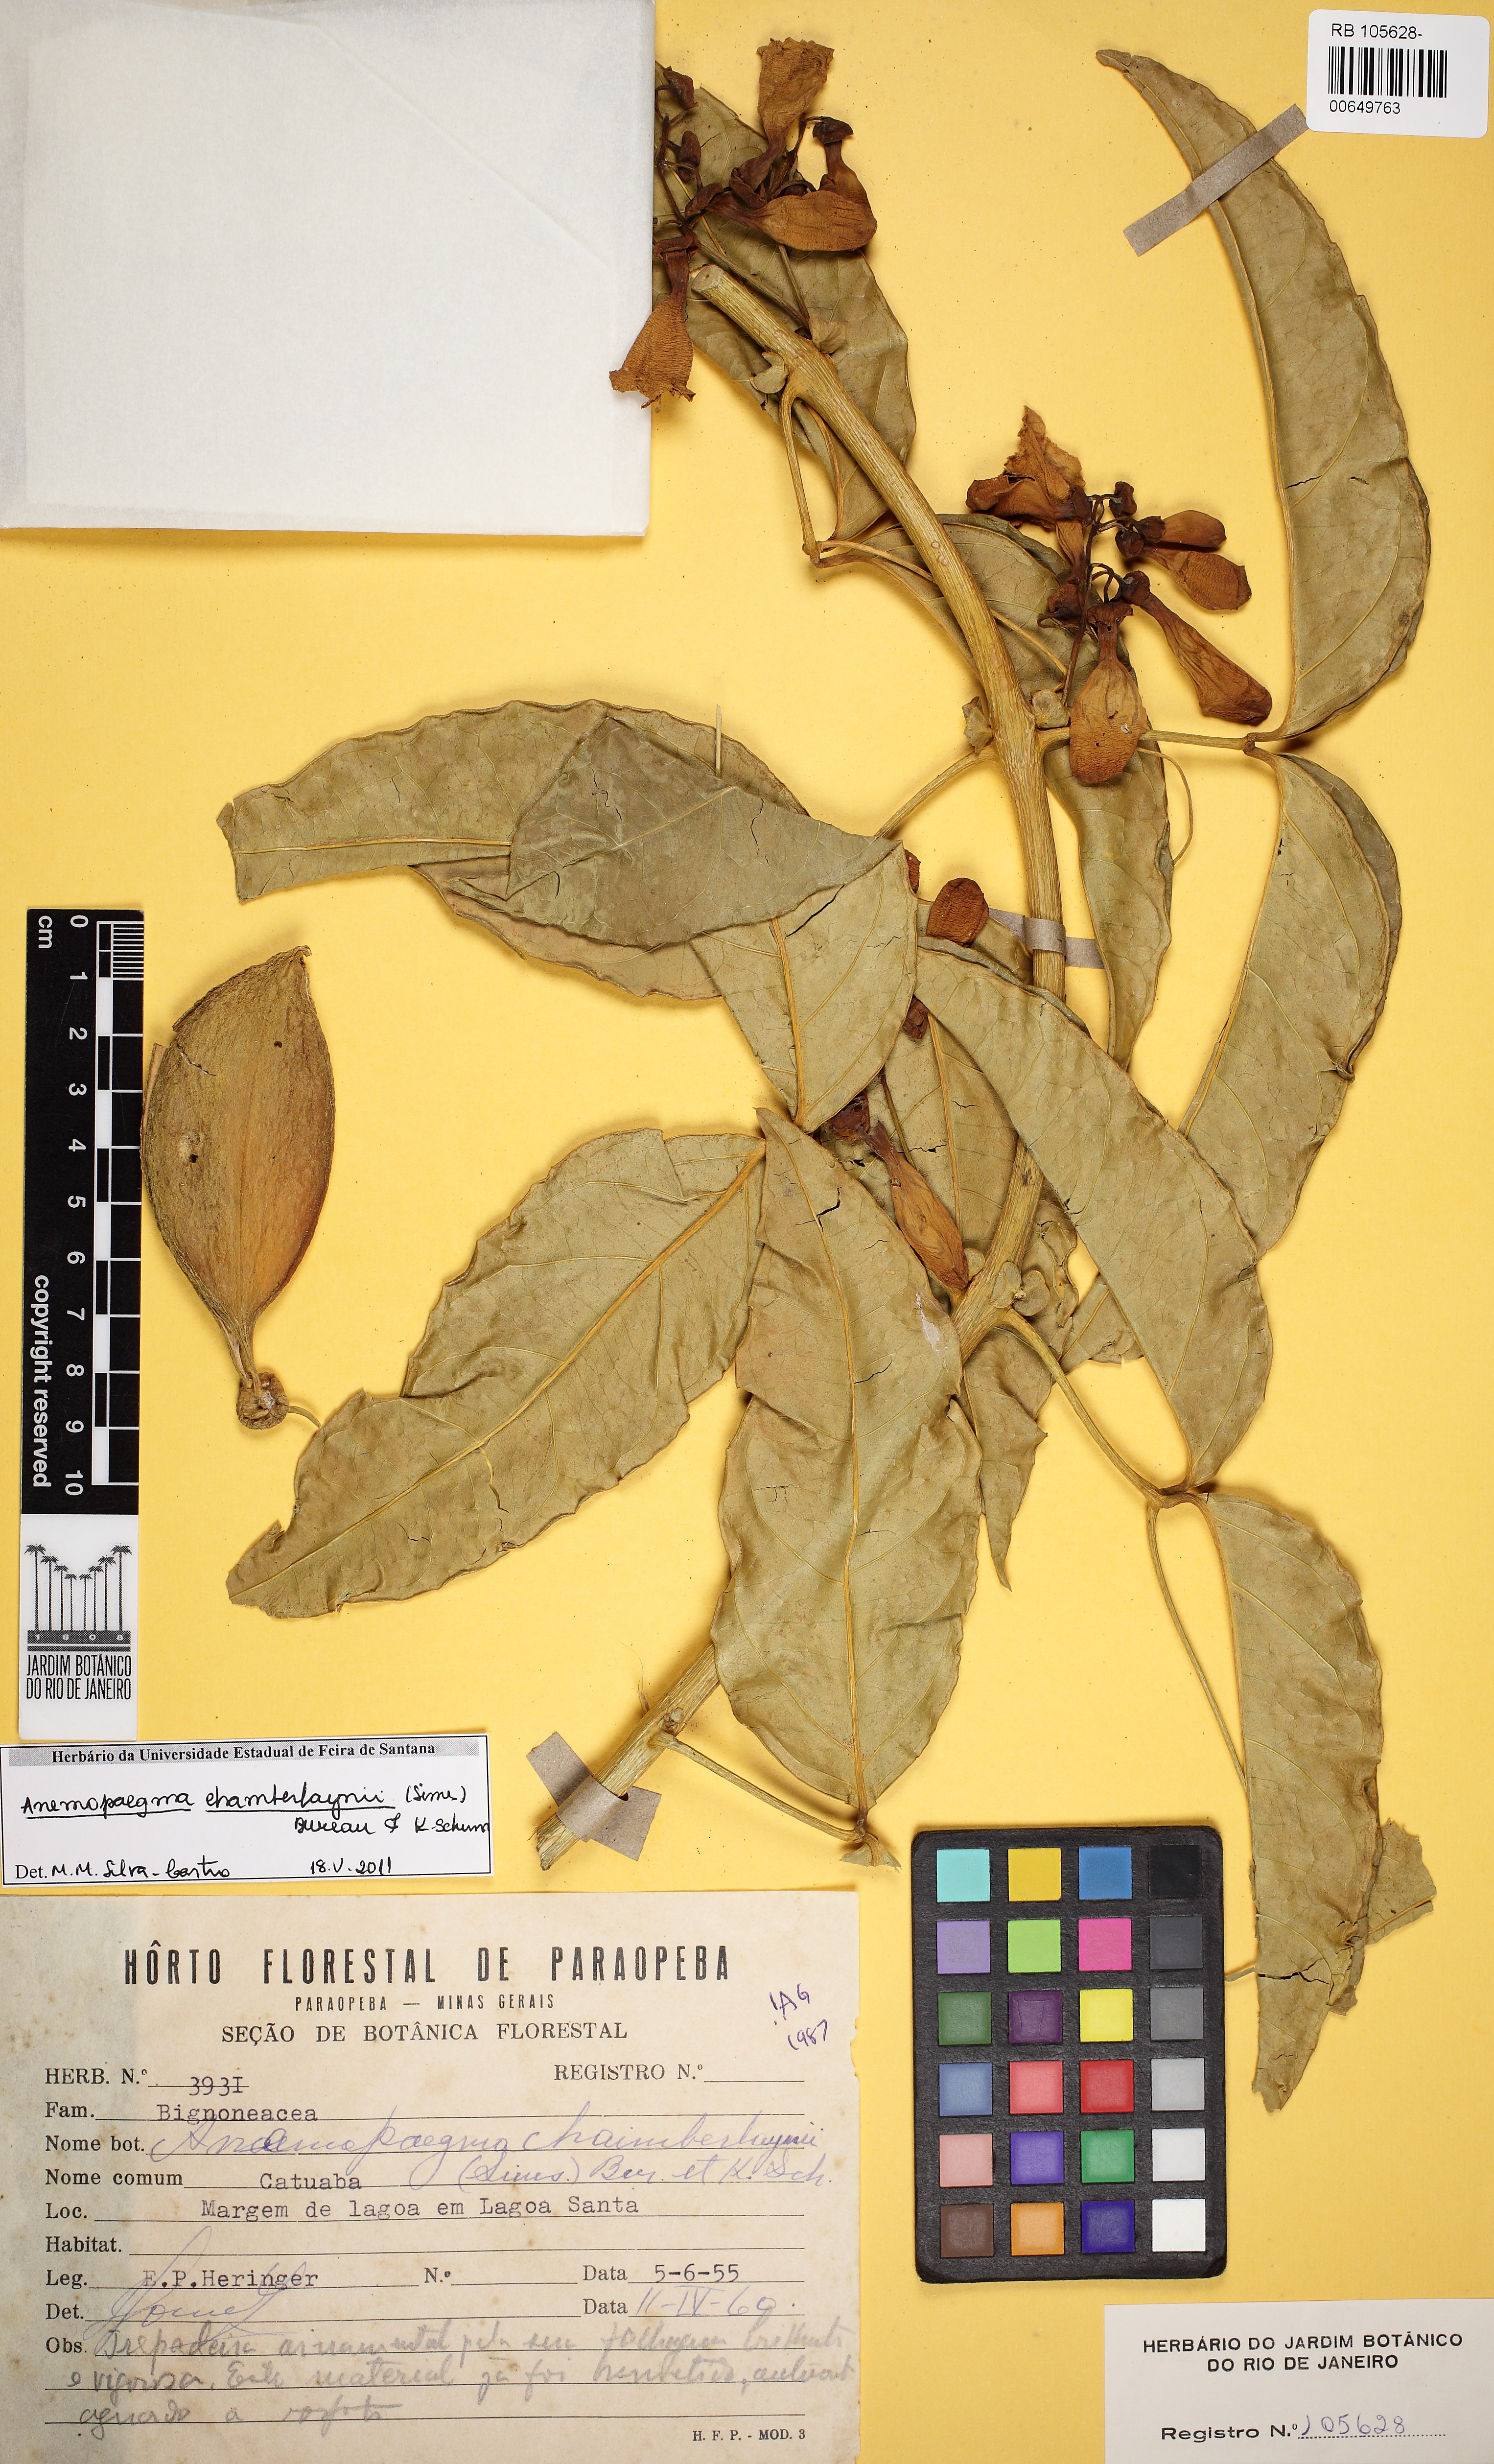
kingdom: Plantae
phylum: Tracheophyta
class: Magnoliopsida
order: Lamiales
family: Bignoniaceae
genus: Anemopaegma
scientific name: Anemopaegma chamberlaynii
